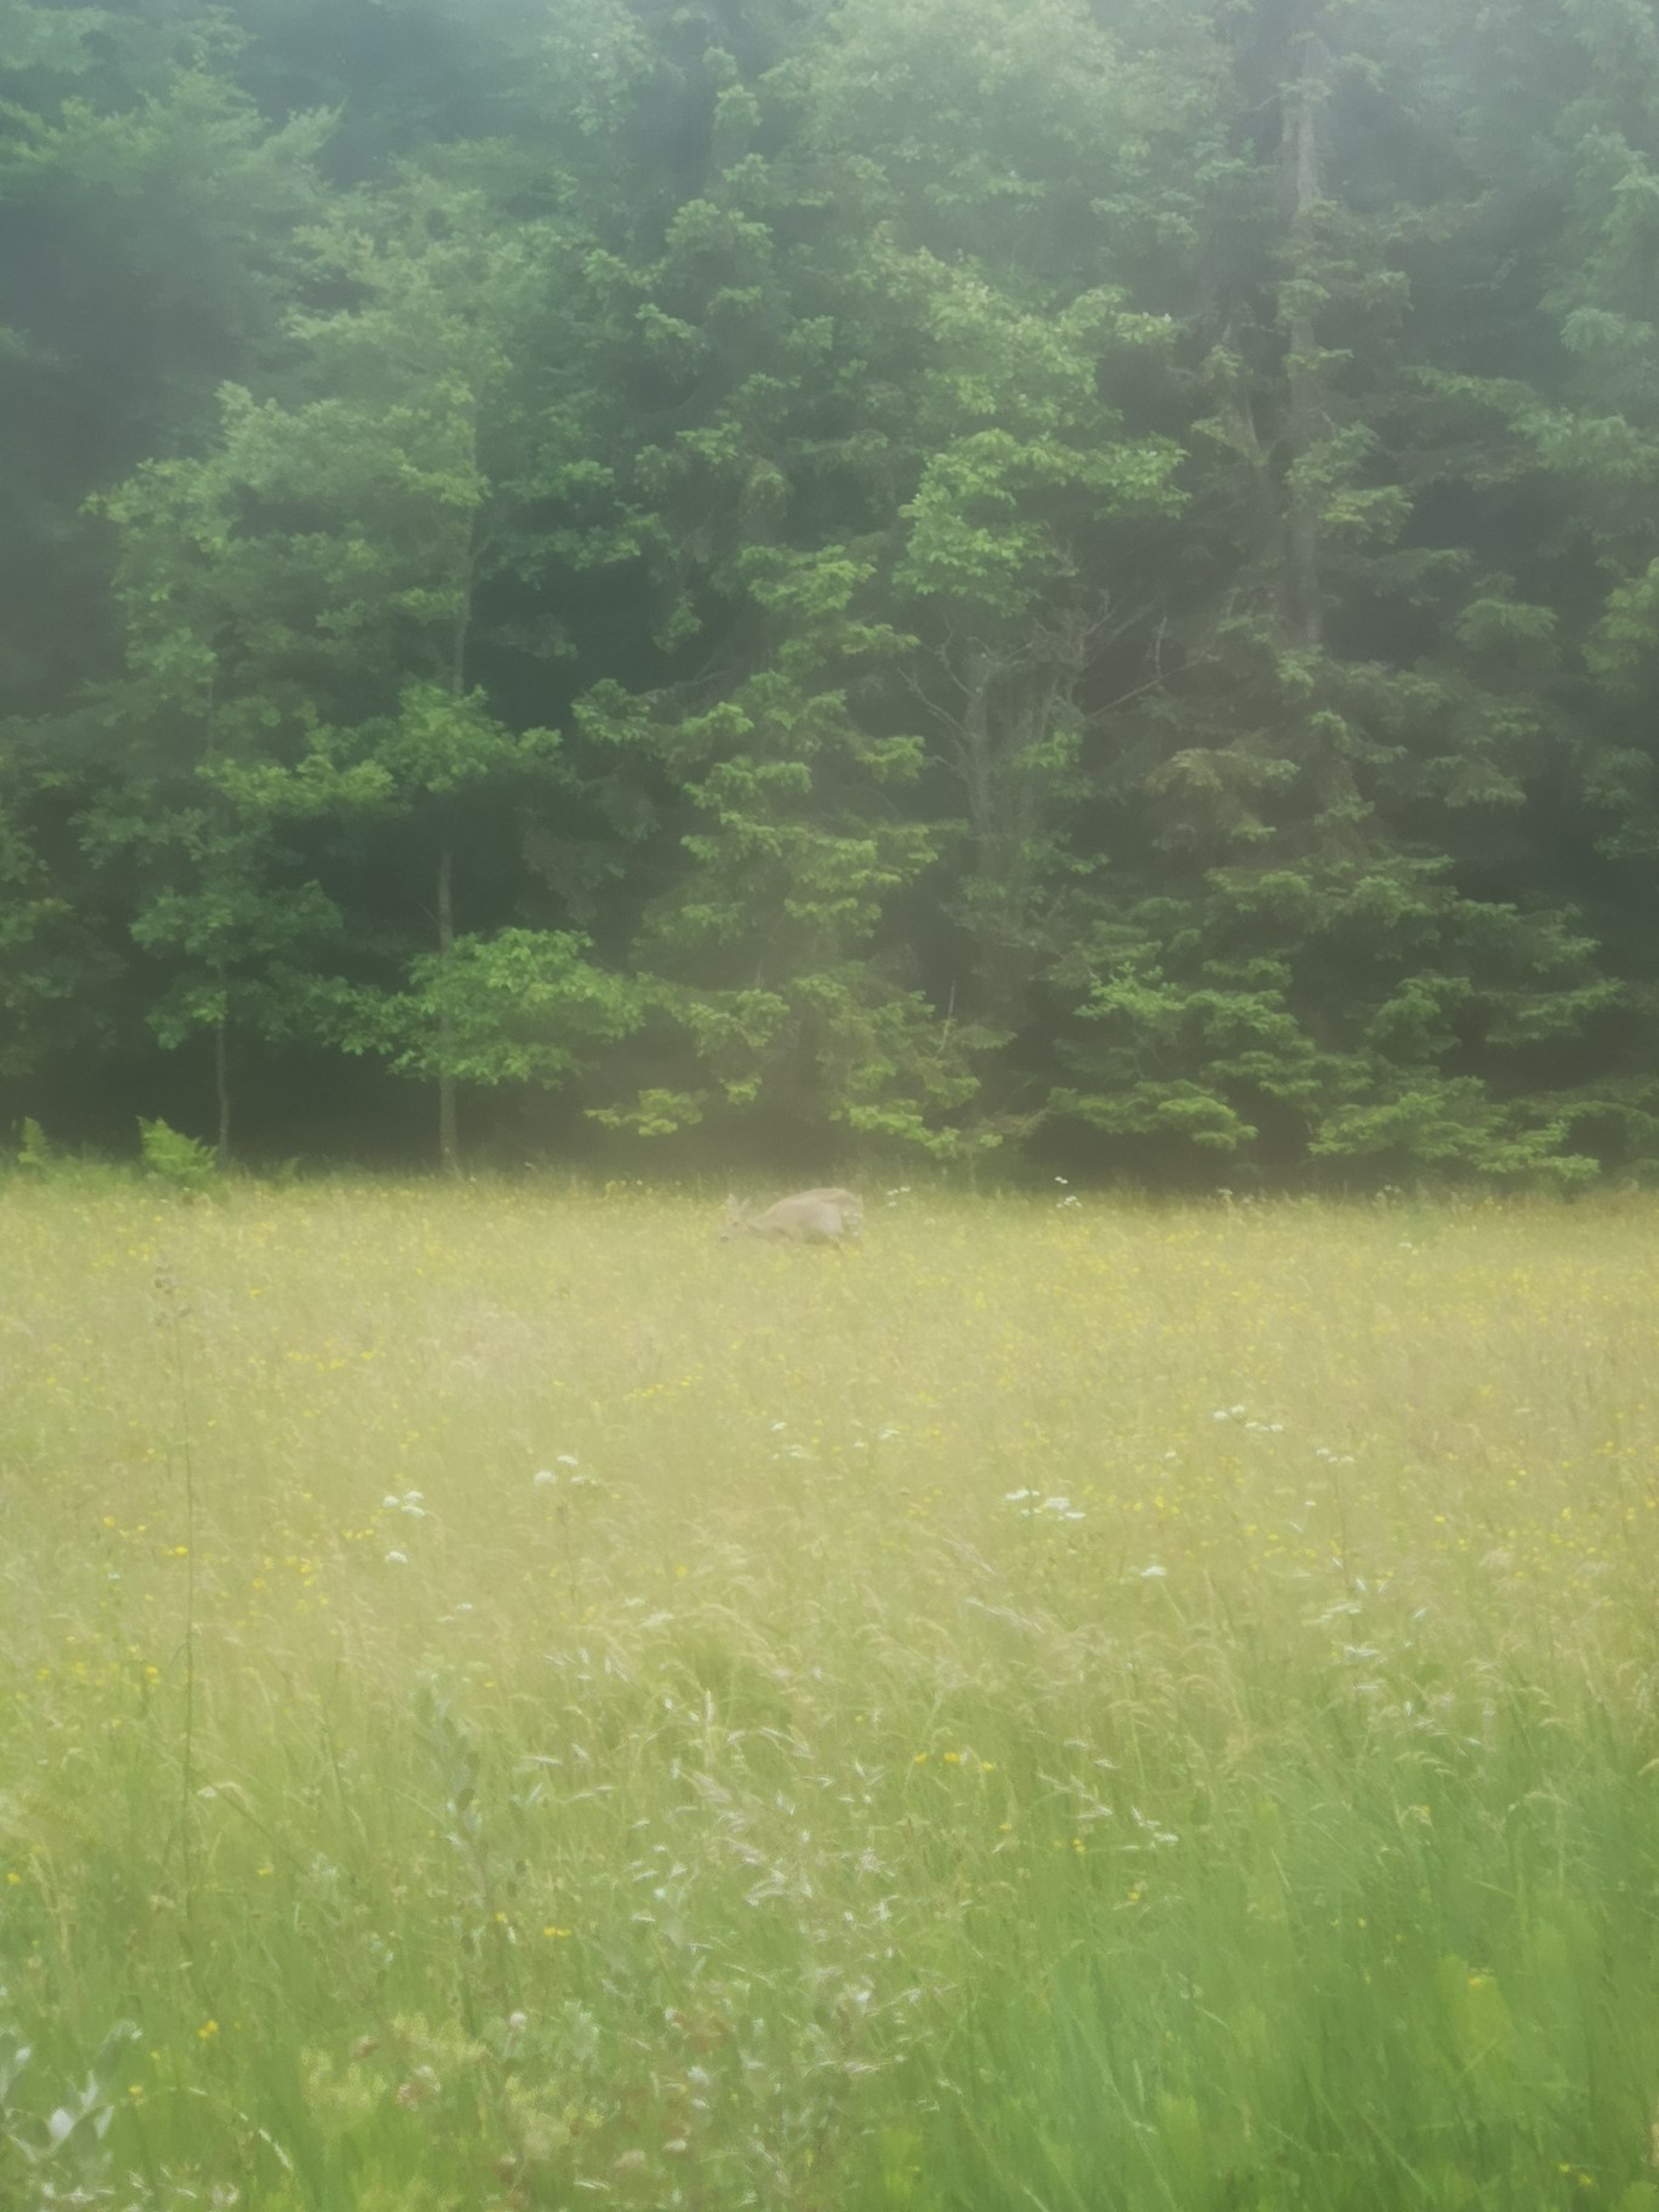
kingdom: Animalia
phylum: Chordata
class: Mammalia
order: Artiodactyla
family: Cervidae
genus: Capreolus
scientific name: Capreolus capreolus
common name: Rådyr
